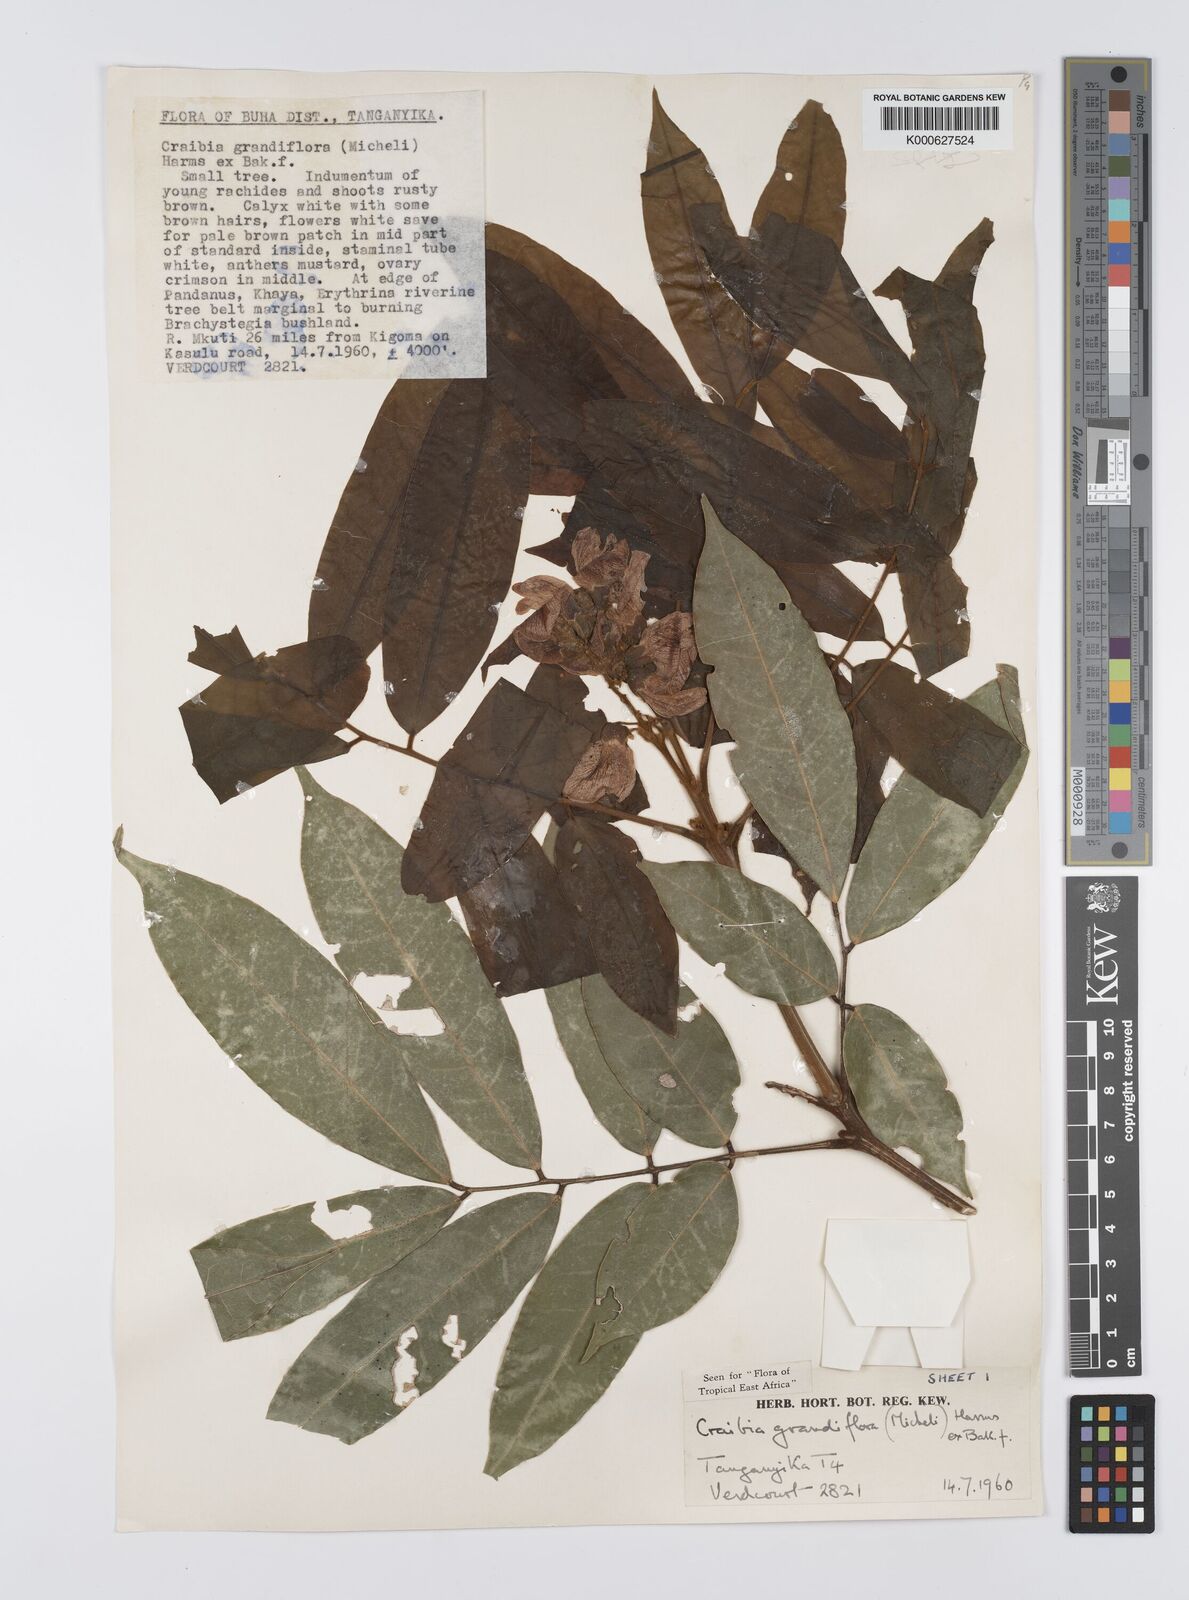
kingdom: Plantae
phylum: Tracheophyta
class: Magnoliopsida
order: Fabales
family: Fabaceae
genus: Craibia
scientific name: Craibia grandiflora
